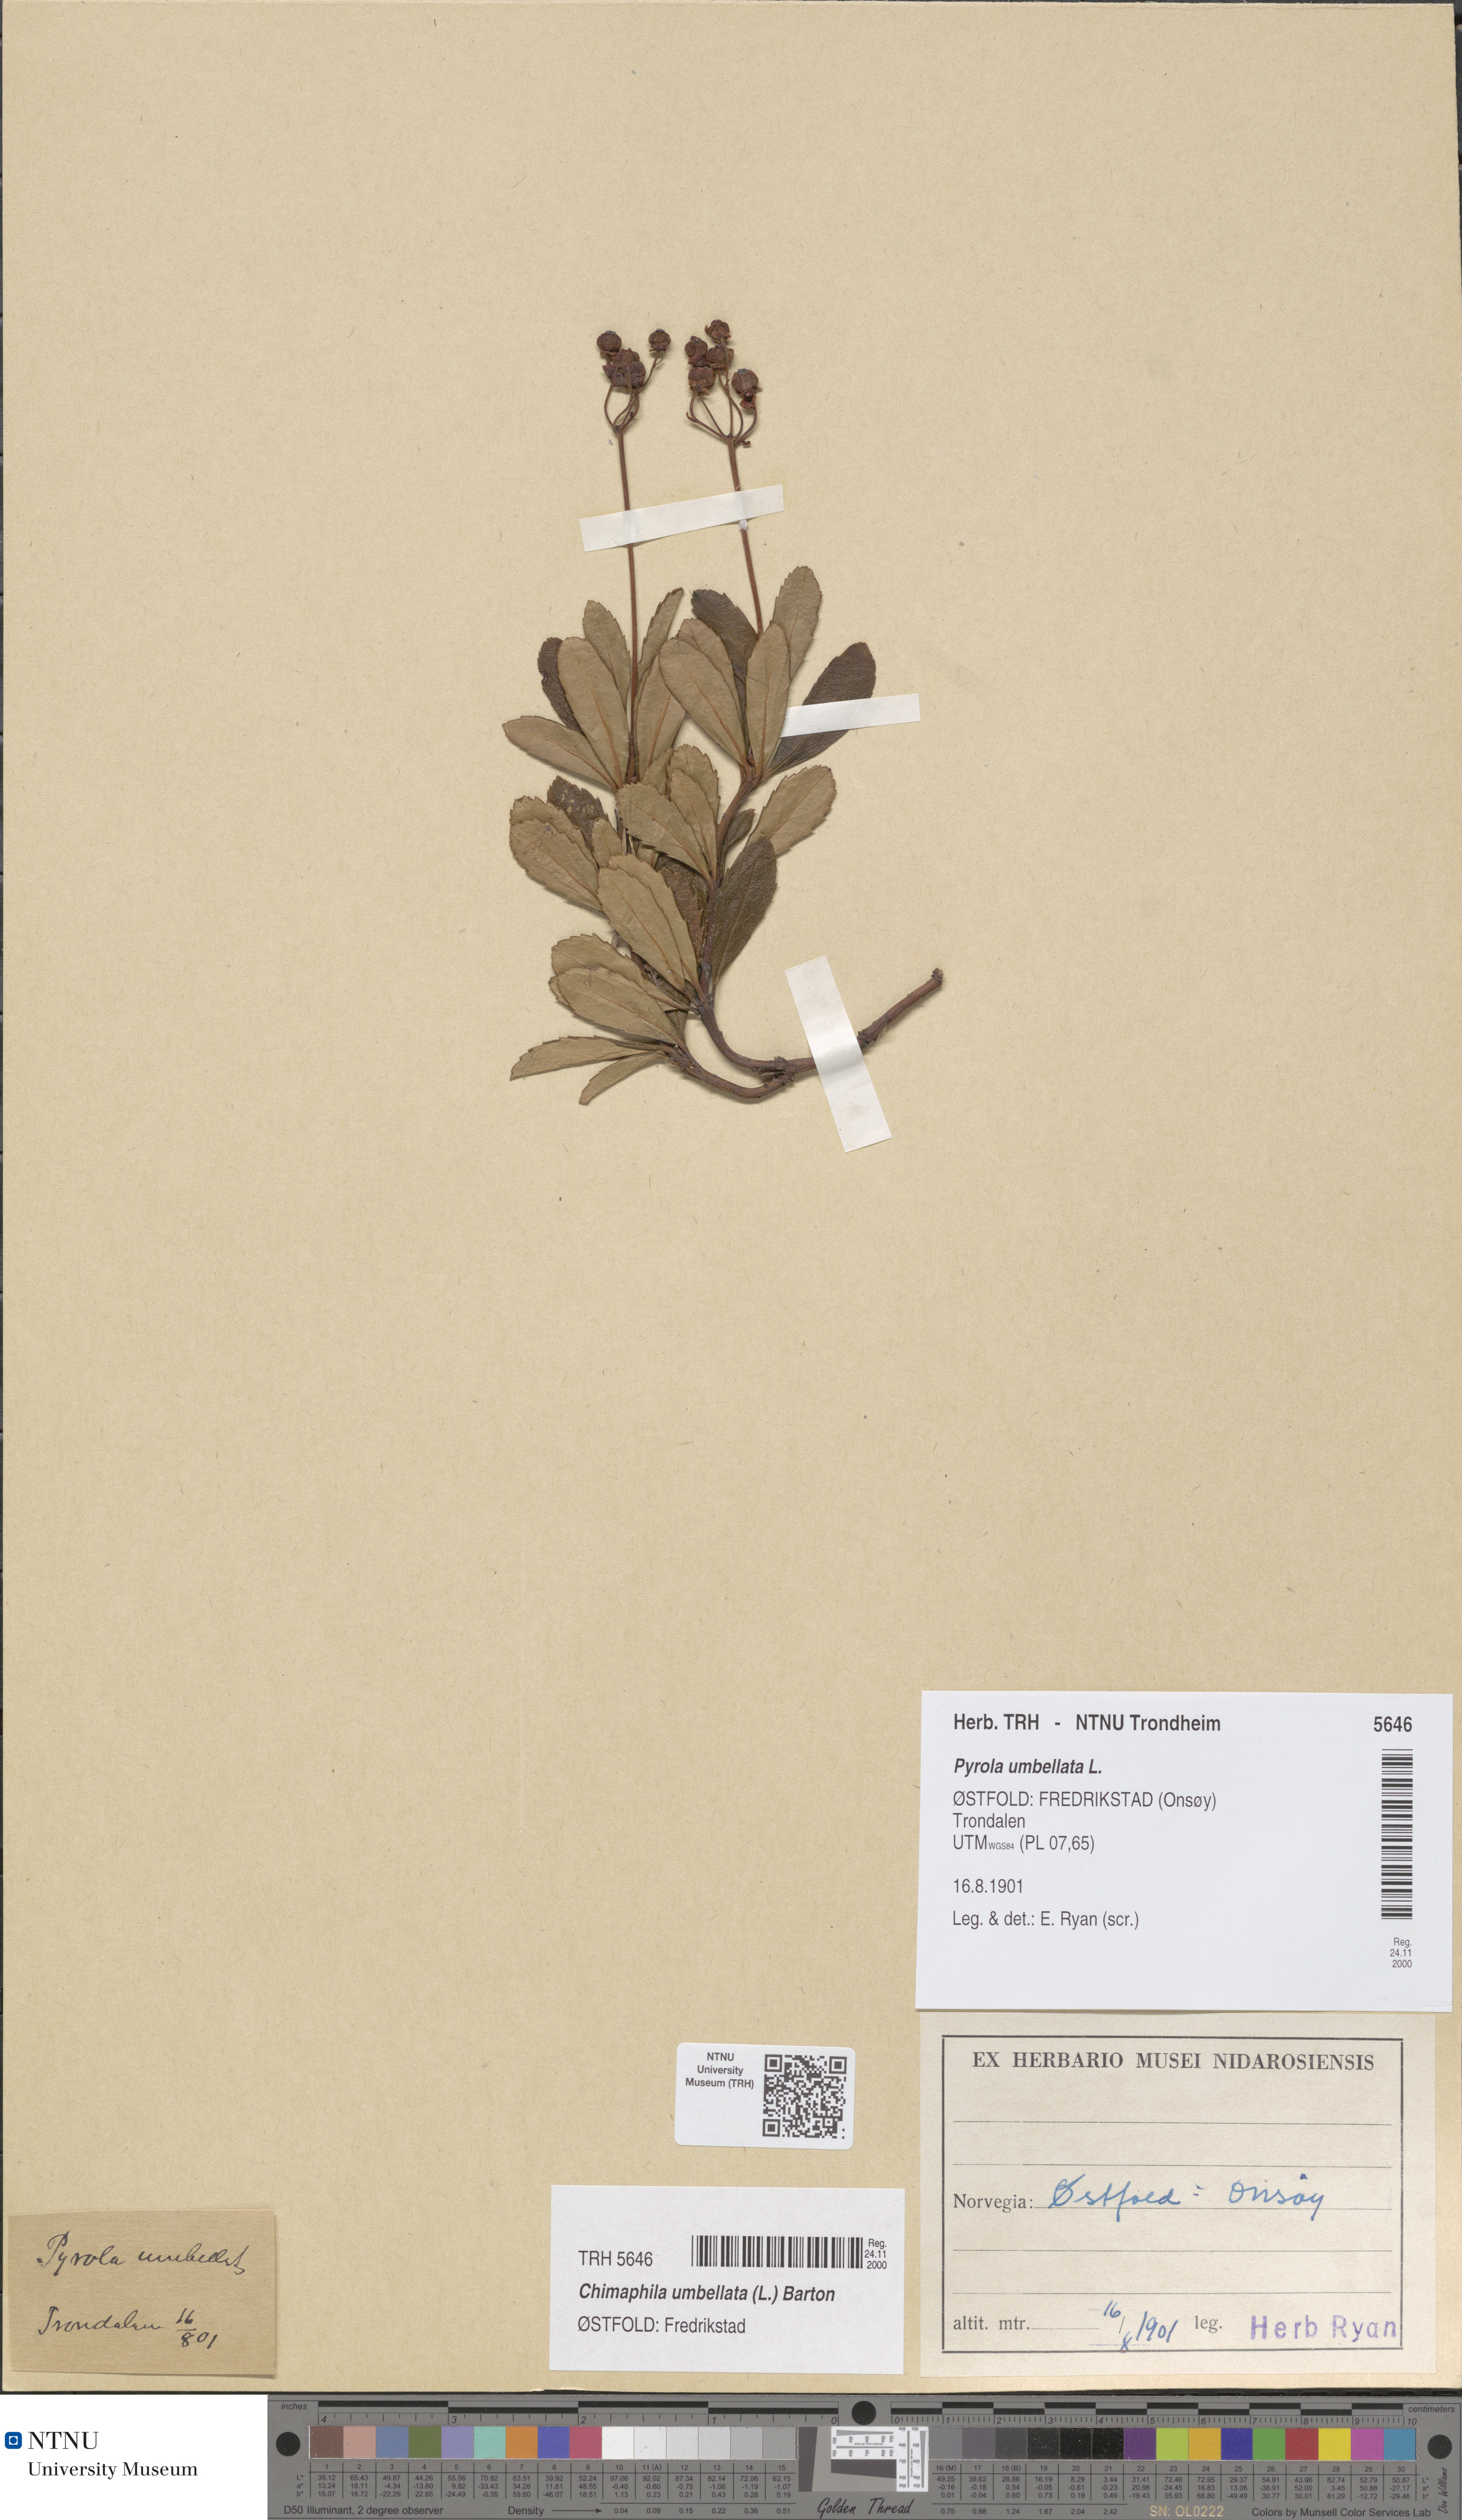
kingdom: Plantae
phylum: Tracheophyta
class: Magnoliopsida
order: Ericales
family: Ericaceae
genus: Chimaphila
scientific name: Chimaphila umbellata
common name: Pipsissewa
